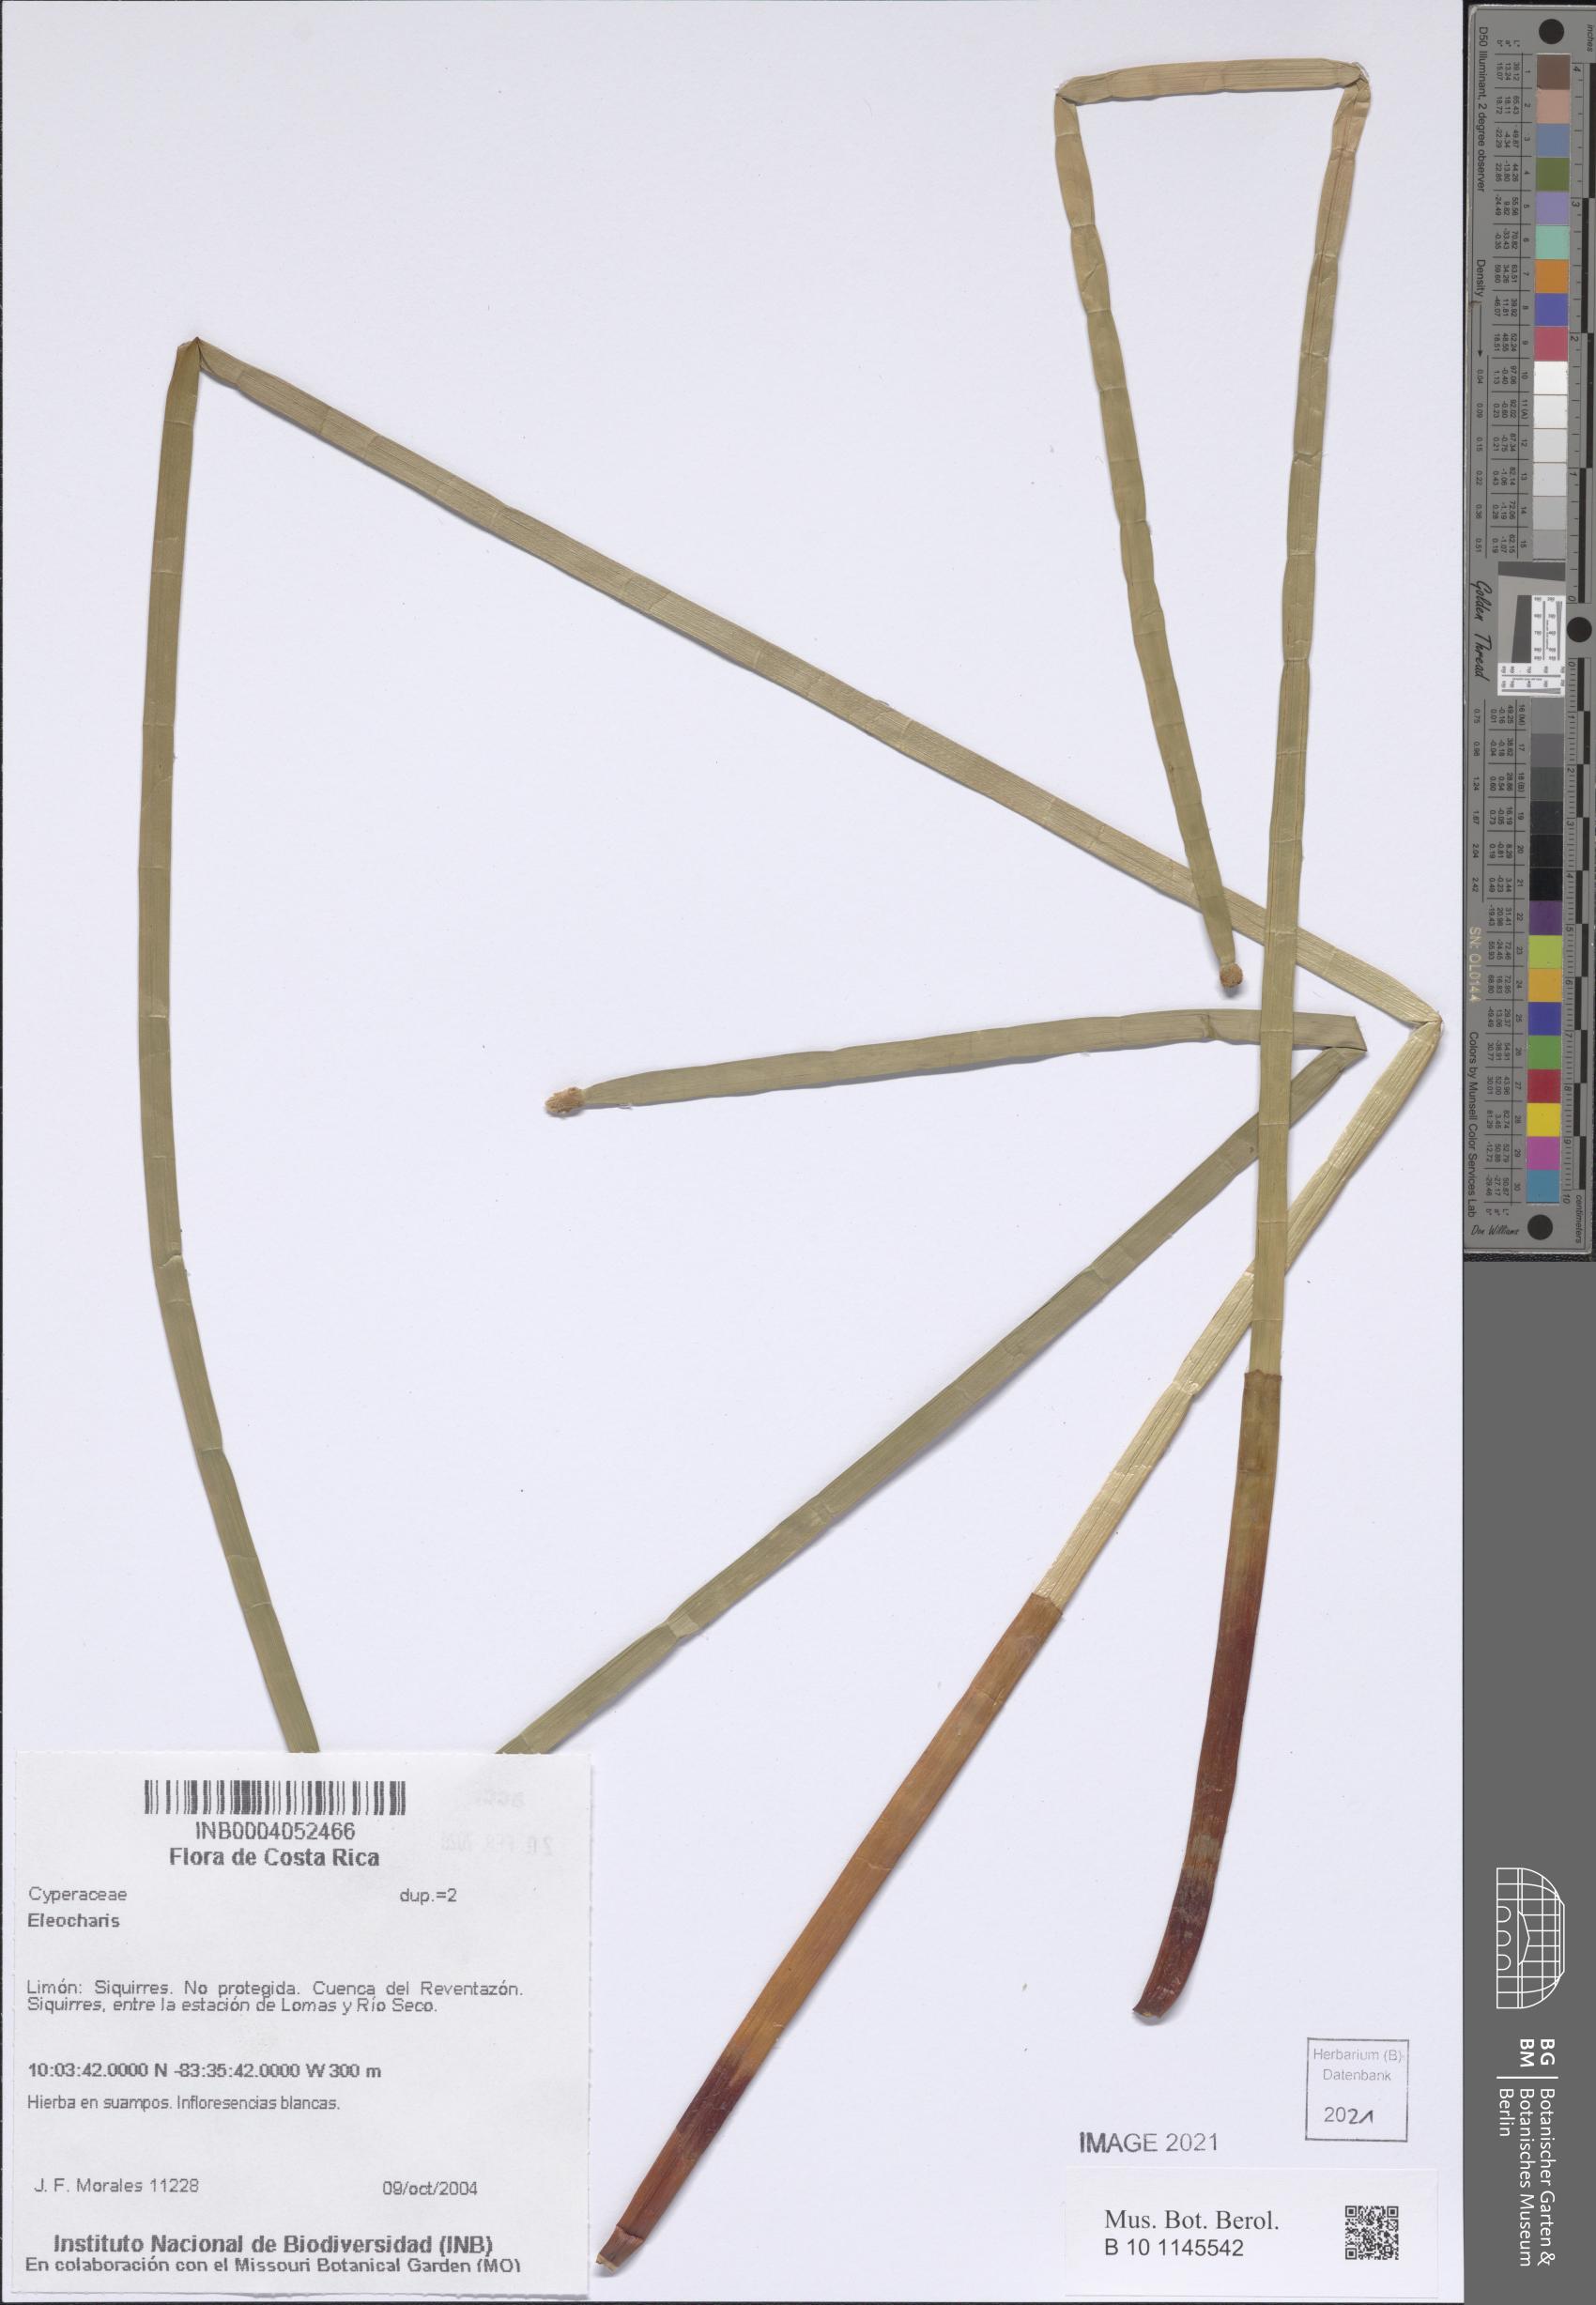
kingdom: Plantae
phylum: Tracheophyta
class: Liliopsida
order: Poales
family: Cyperaceae
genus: Eleocharis
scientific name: Eleocharis
